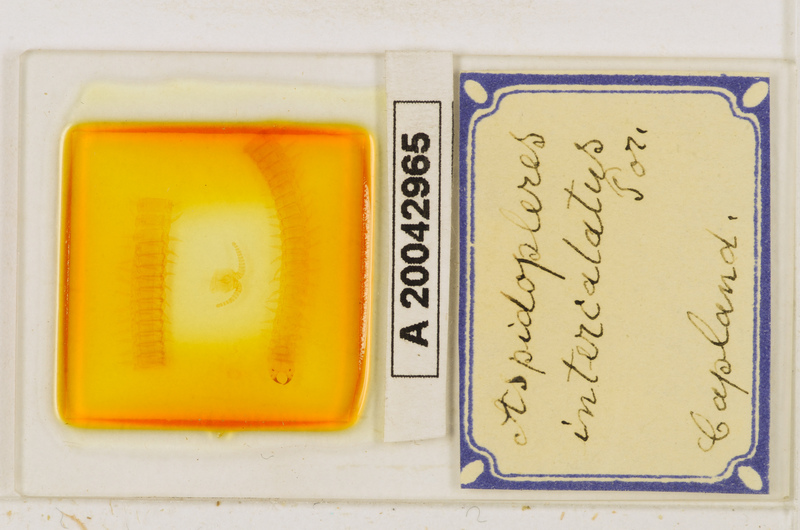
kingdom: Animalia
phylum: Arthropoda
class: Chilopoda
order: Geophilomorpha
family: Oryidae
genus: Aspidopleres
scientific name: Aspidopleres intercalatus
